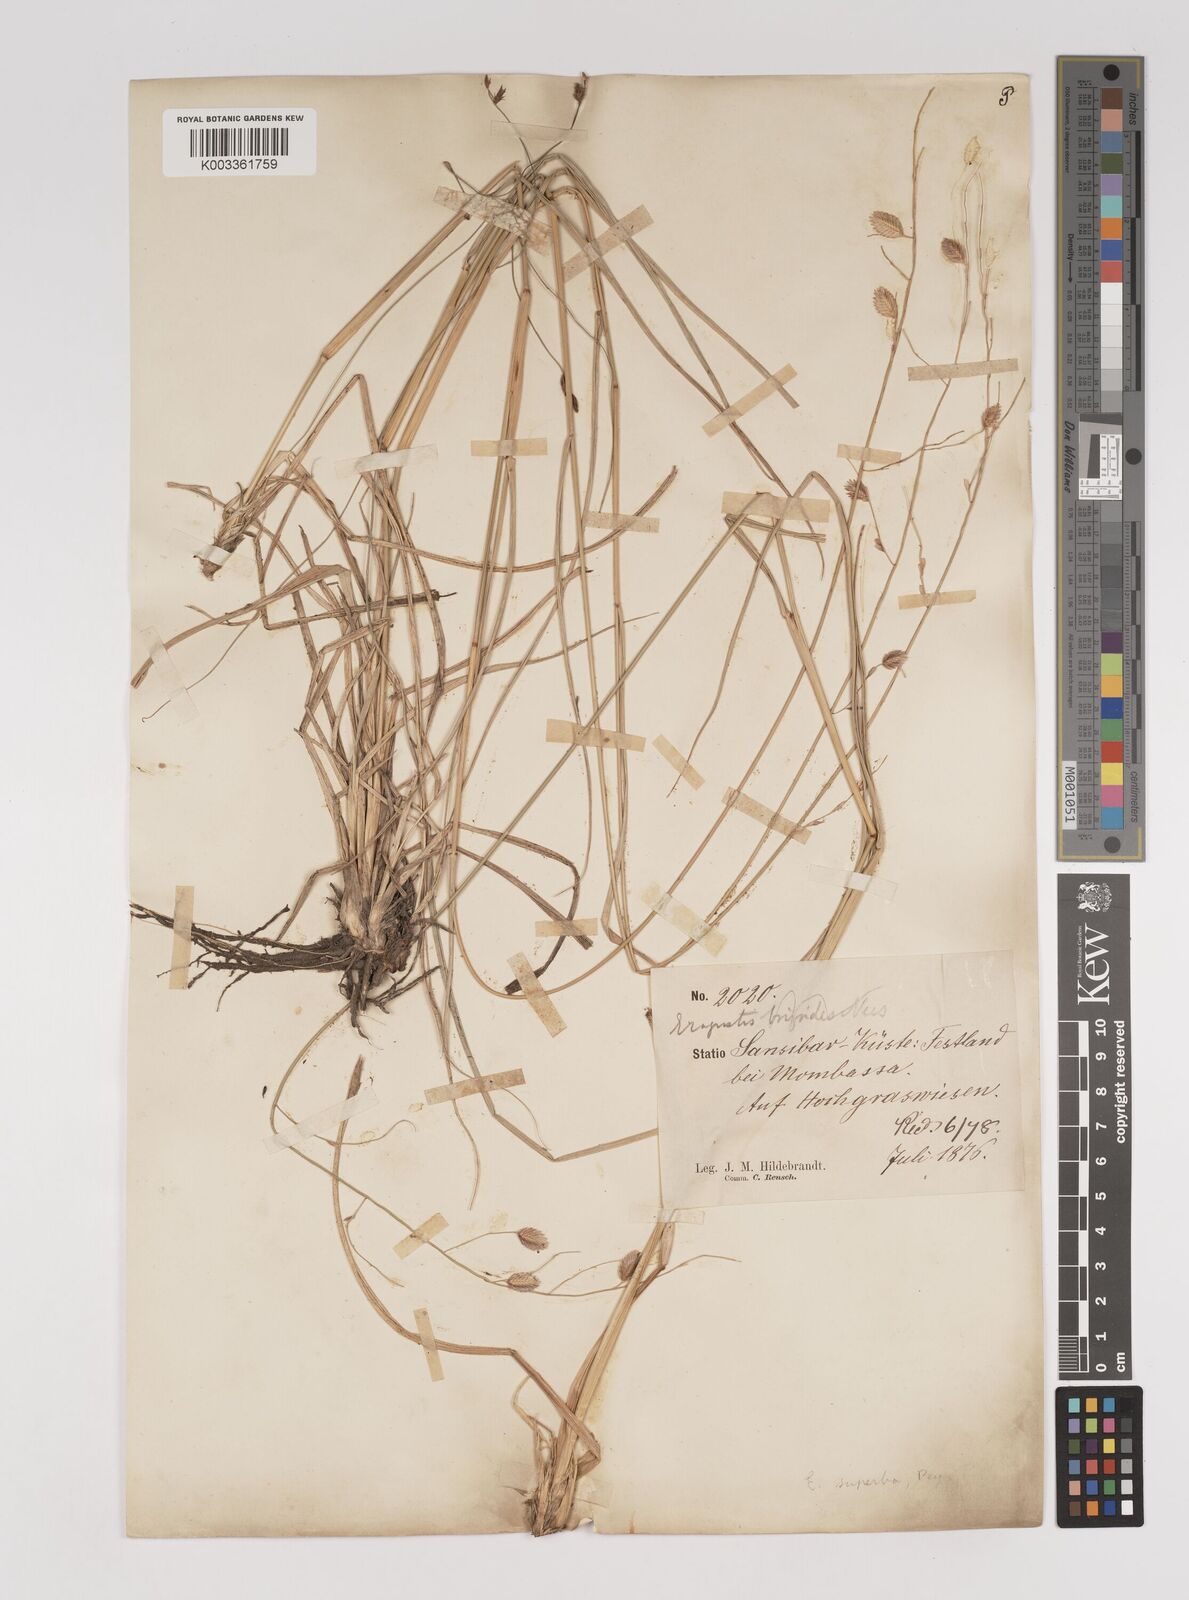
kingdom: Plantae
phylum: Tracheophyta
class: Liliopsida
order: Poales
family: Poaceae
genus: Eragrostis
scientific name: Eragrostis superba
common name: Wilman lovegrass
